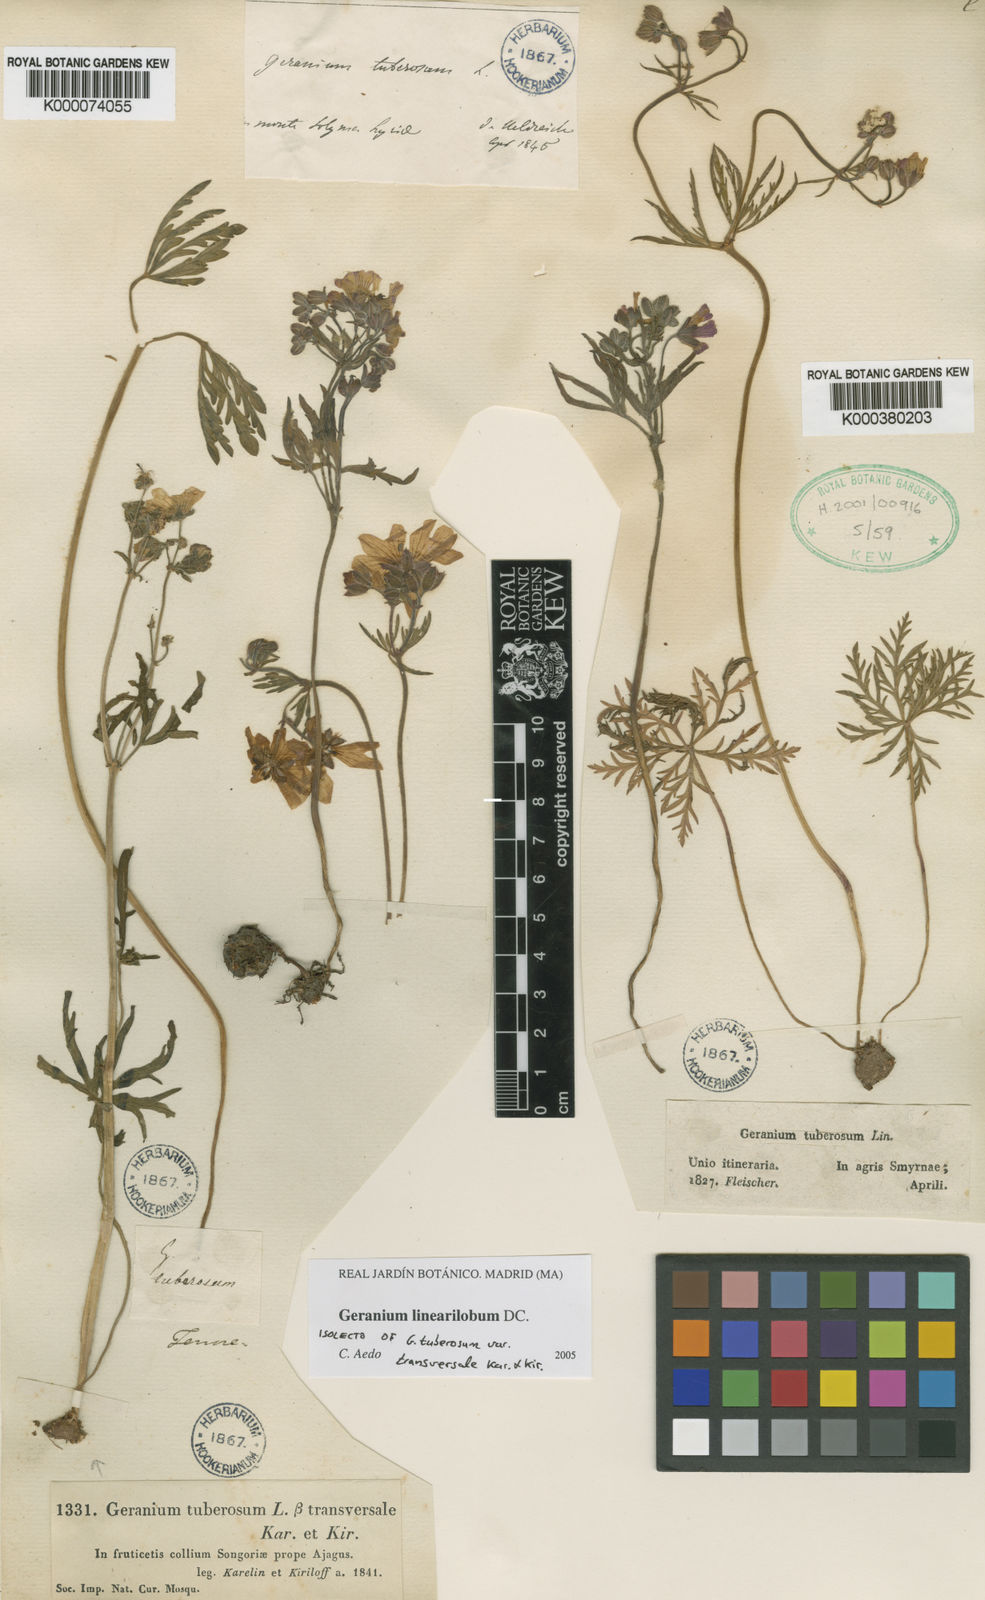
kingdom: Plantae
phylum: Tracheophyta
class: Magnoliopsida
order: Geraniales
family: Geraniaceae
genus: Geranium
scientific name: Geranium linearilobum
